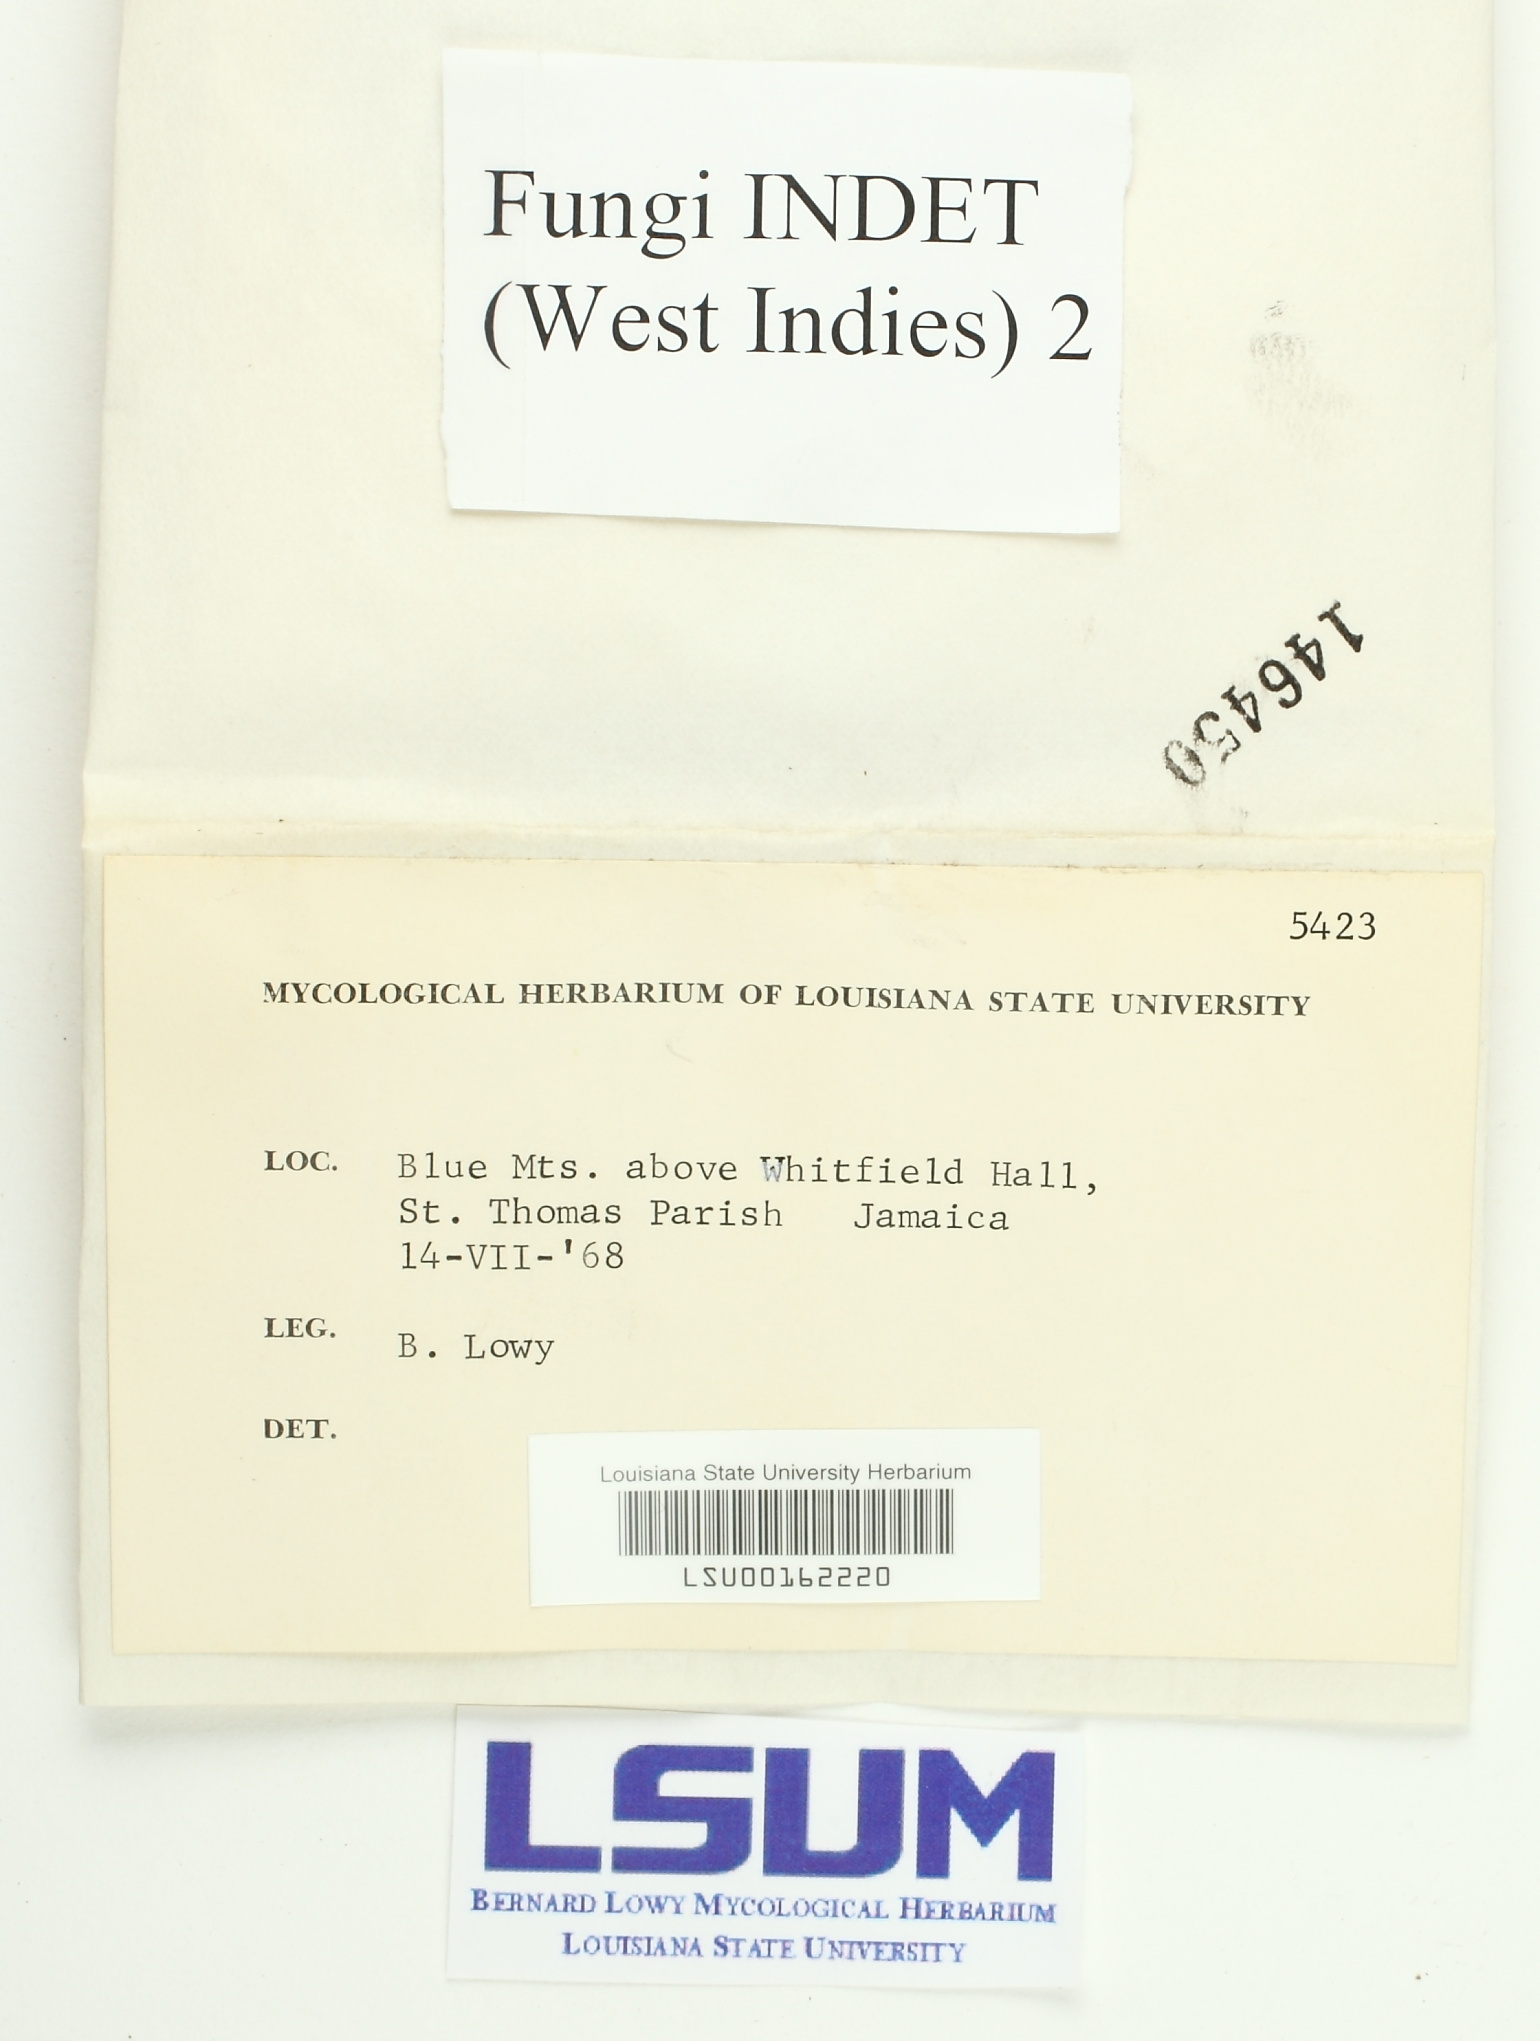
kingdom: Fungi
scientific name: Fungi
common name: Fungi
